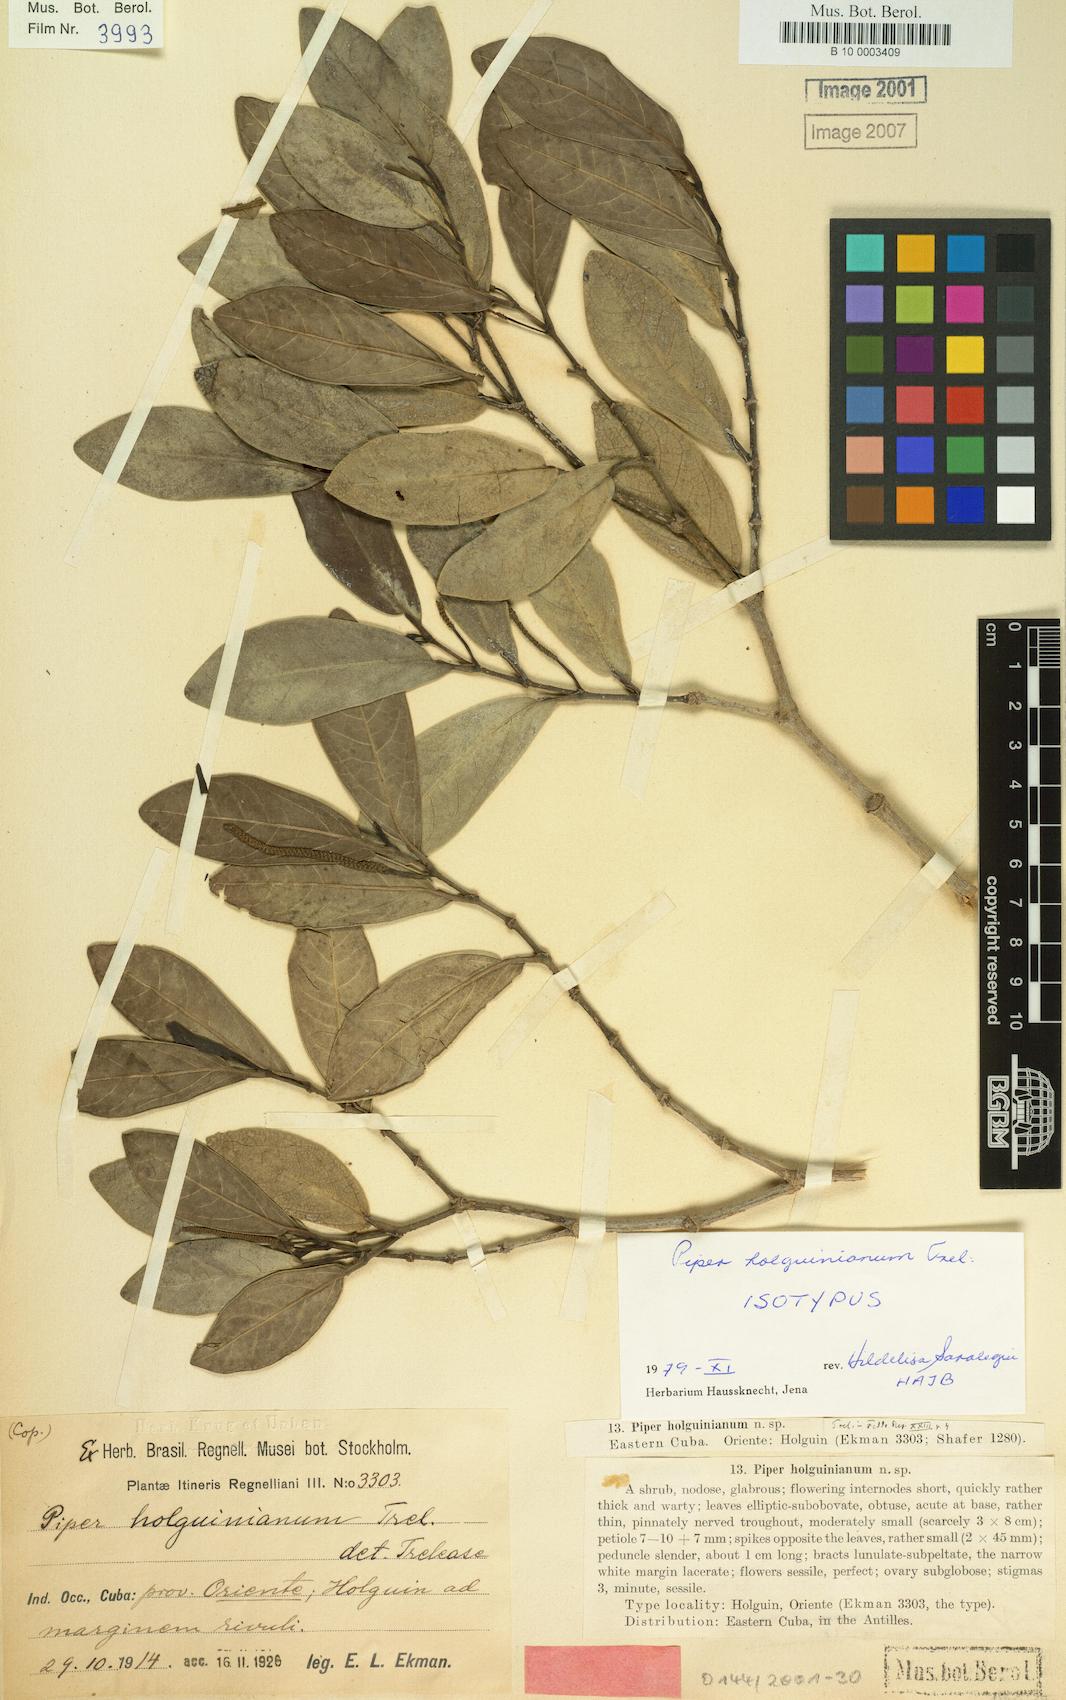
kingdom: Plantae
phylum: Tracheophyta
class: Magnoliopsida
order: Piperales
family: Piperaceae
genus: Piper
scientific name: Piper holguinianum
